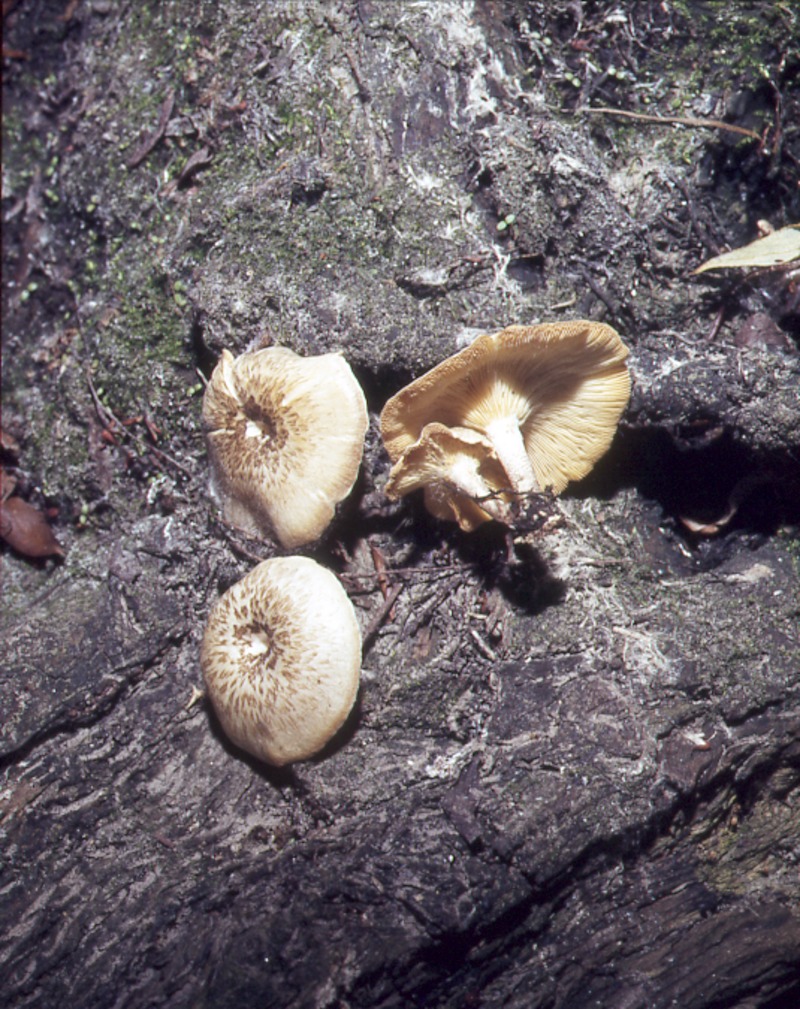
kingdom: Fungi
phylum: Basidiomycota
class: Agaricomycetes
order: Polyporales
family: Polyporaceae
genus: Lentinus
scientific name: Lentinus tigrinus
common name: Tiger sawgill
